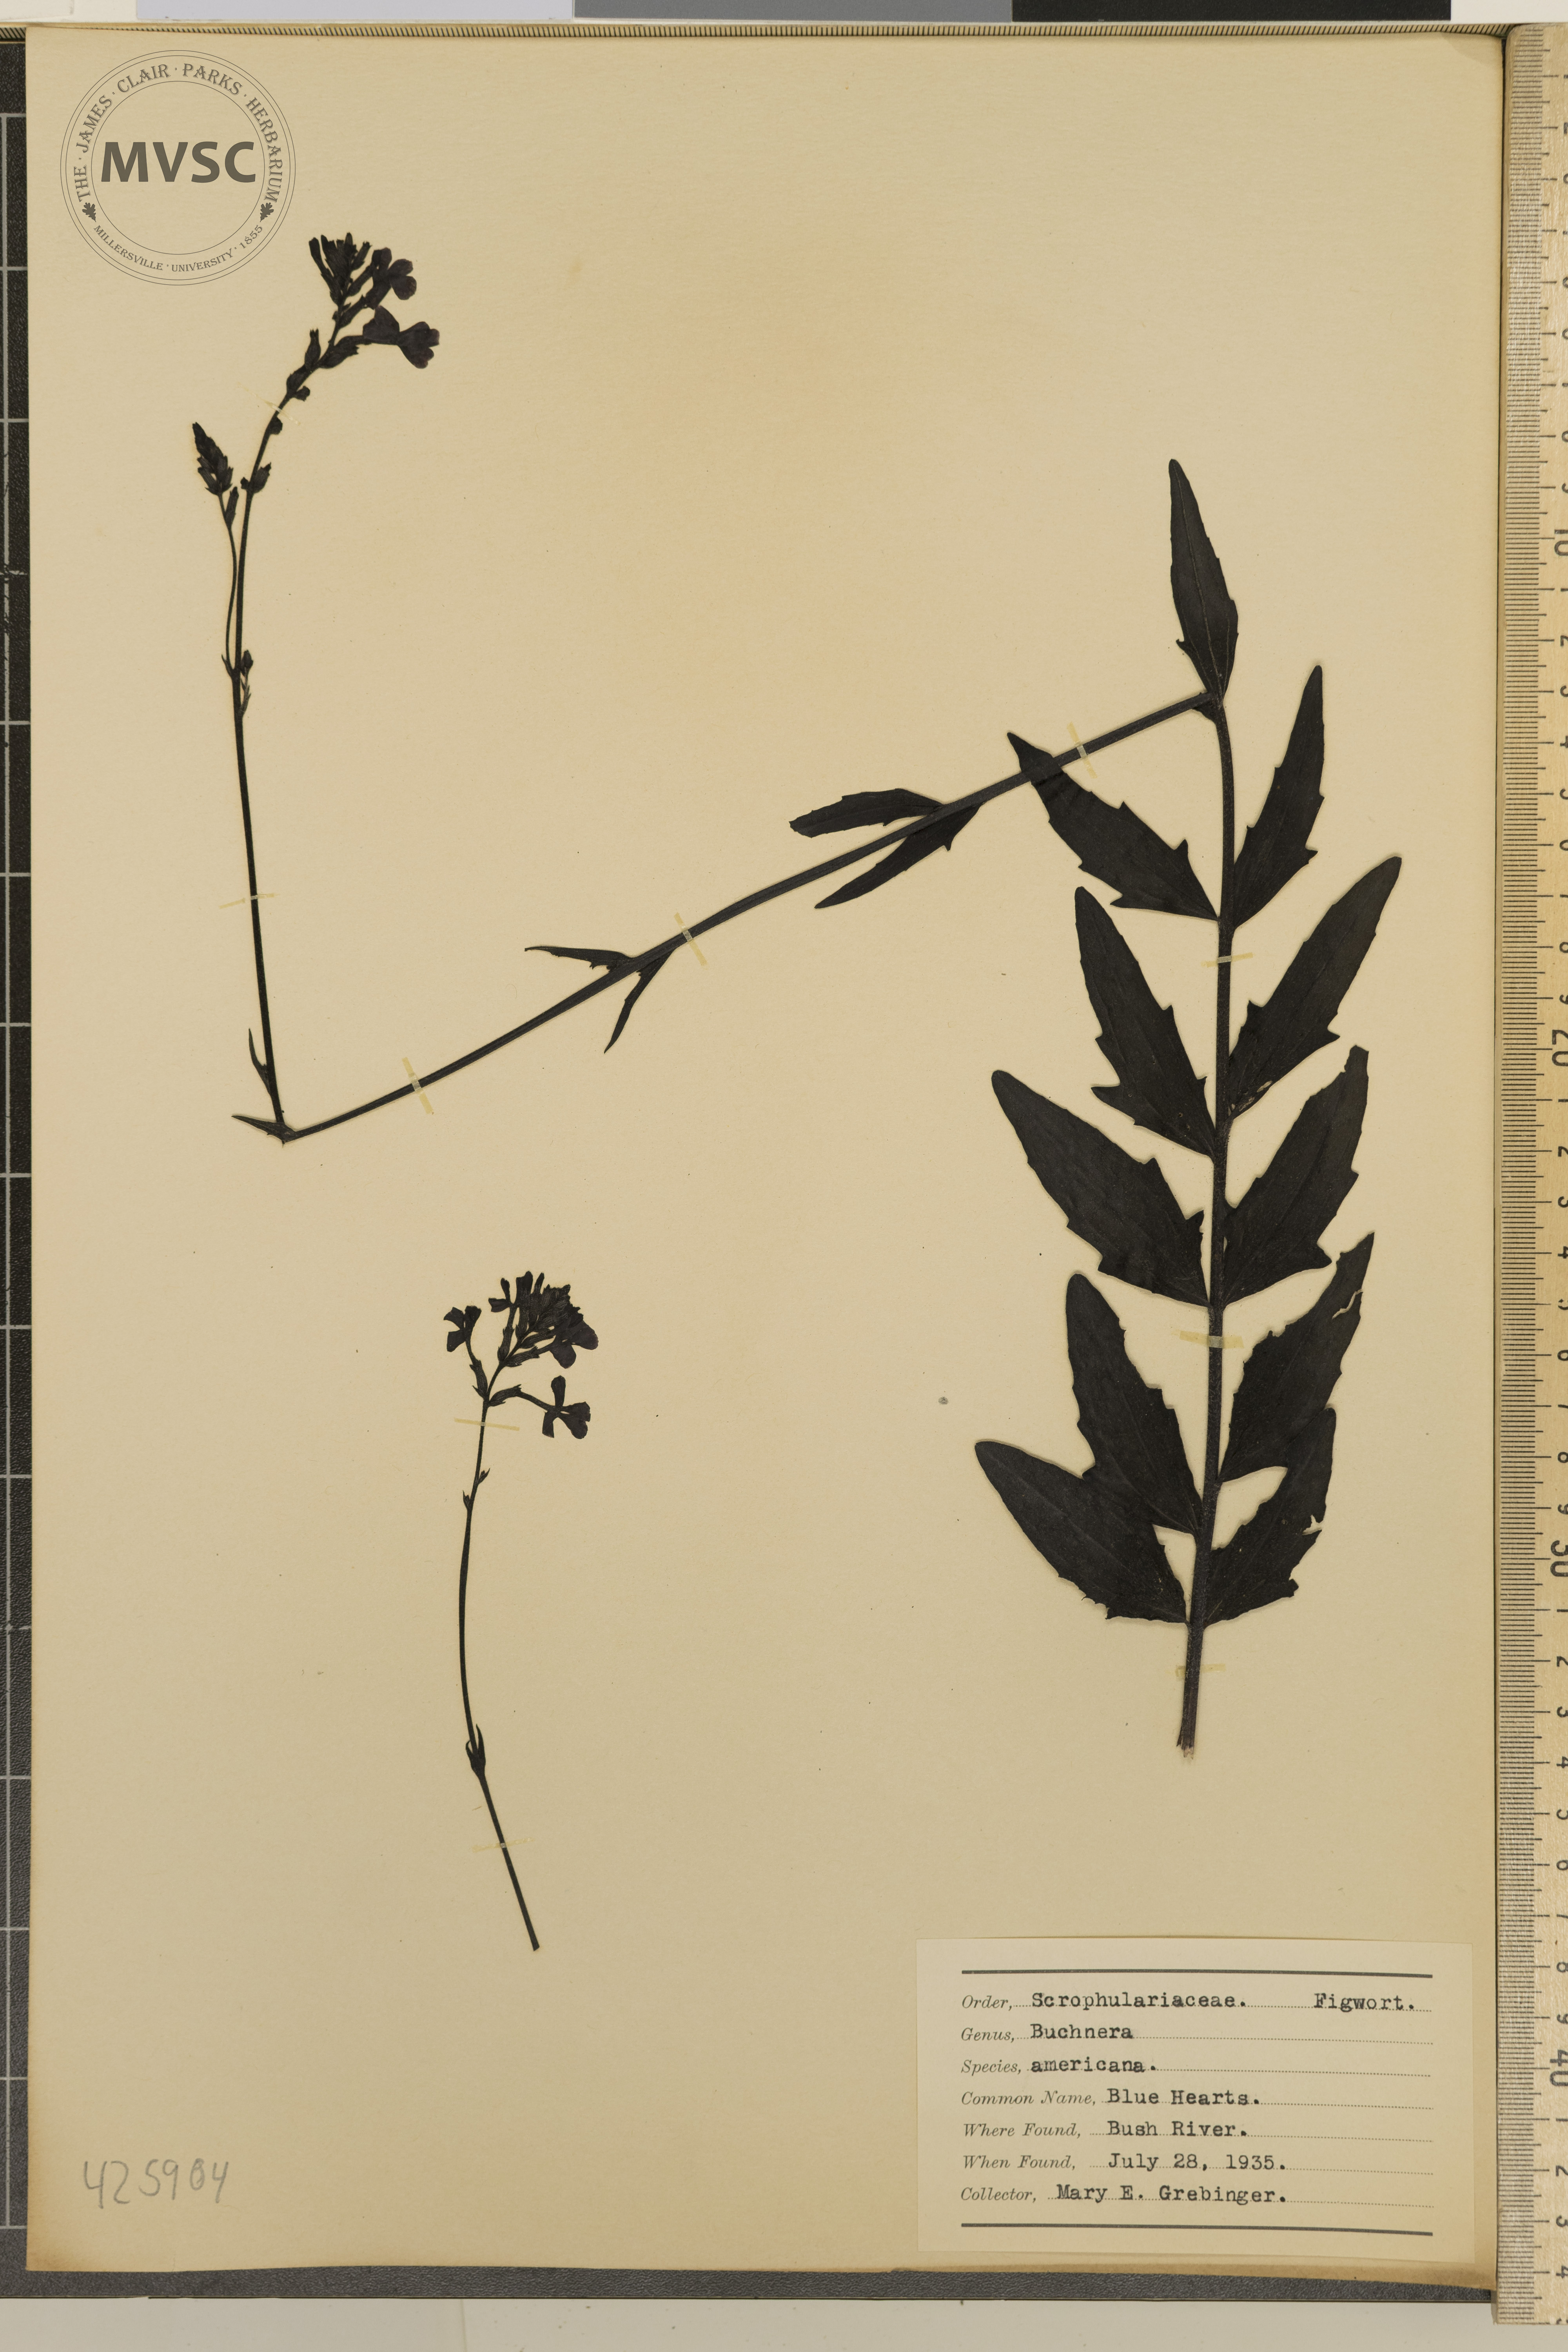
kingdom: Plantae
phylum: Tracheophyta
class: Magnoliopsida
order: Lamiales
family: Orobanchaceae
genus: Buchnera
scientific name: Buchnera americana
